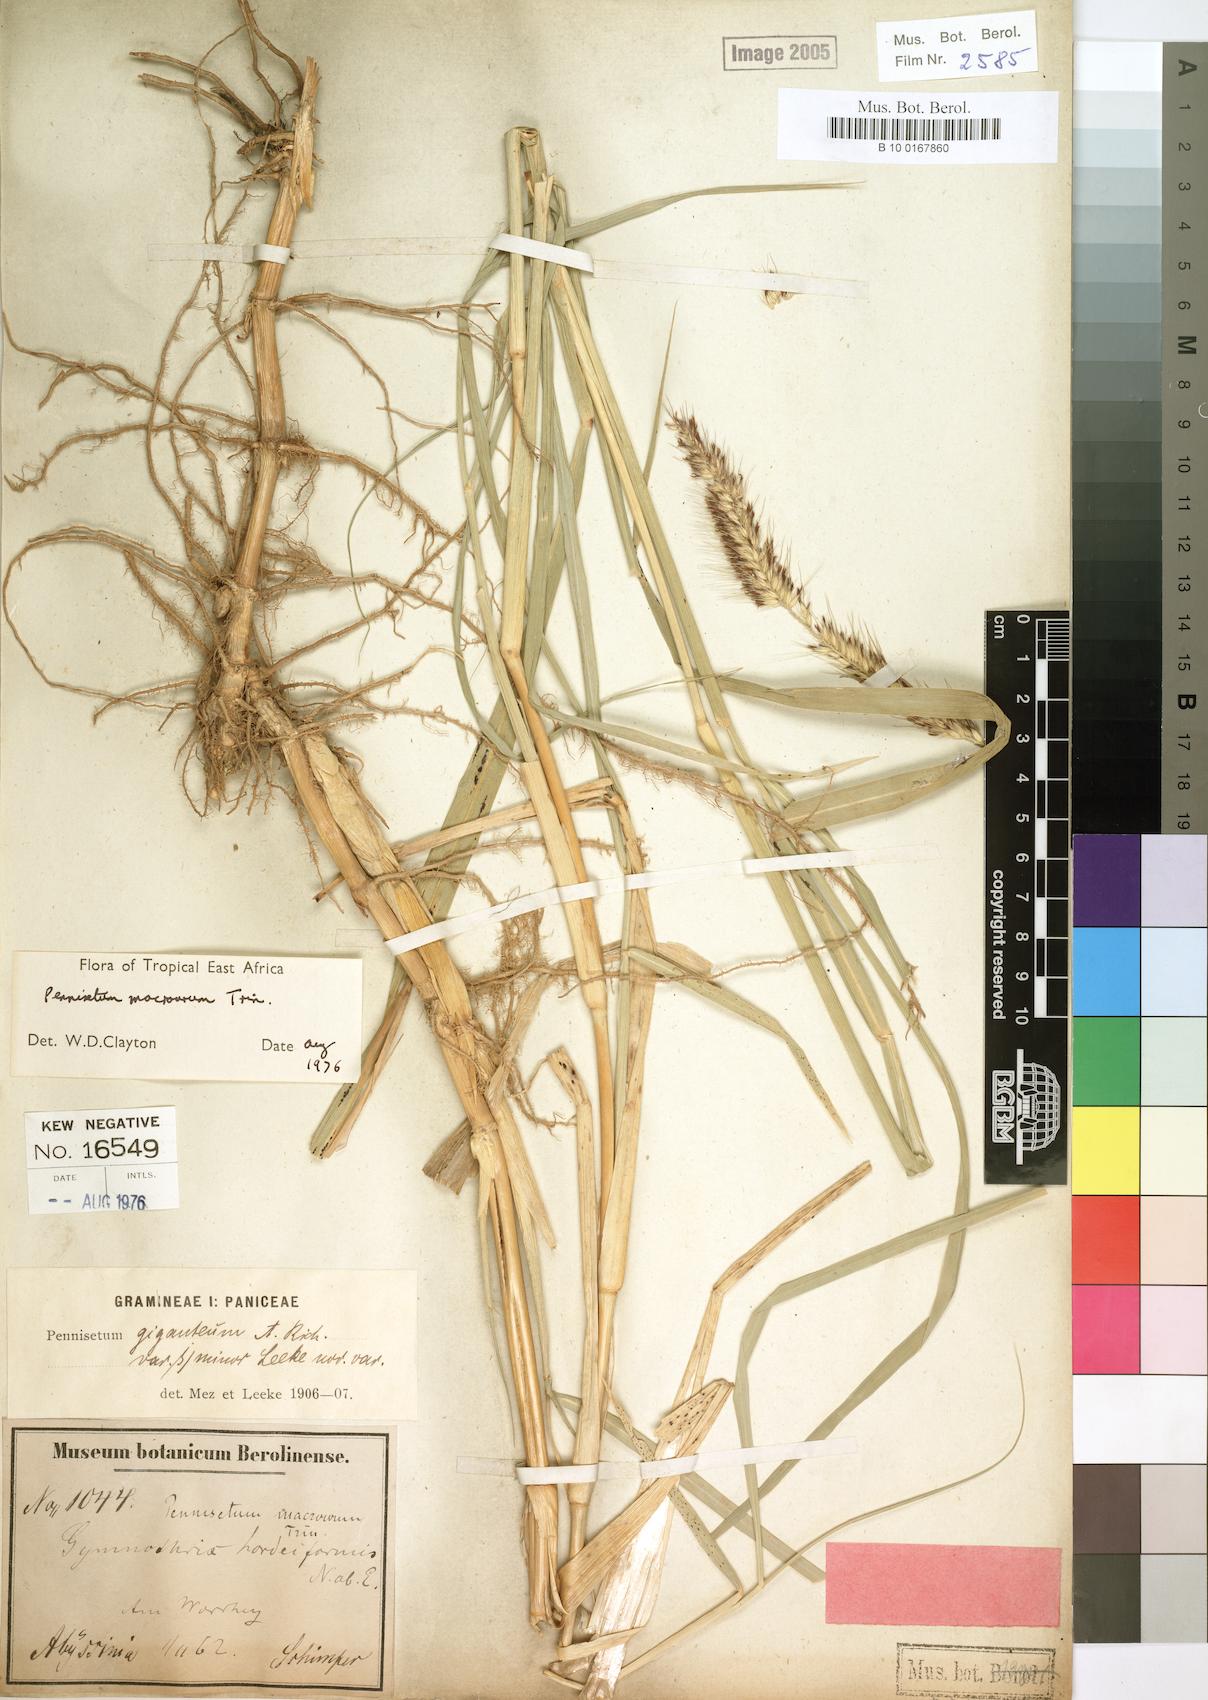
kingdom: Plantae
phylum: Tracheophyta
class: Liliopsida
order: Poales
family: Poaceae
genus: Cenchrus
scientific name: Cenchrus caudatus
